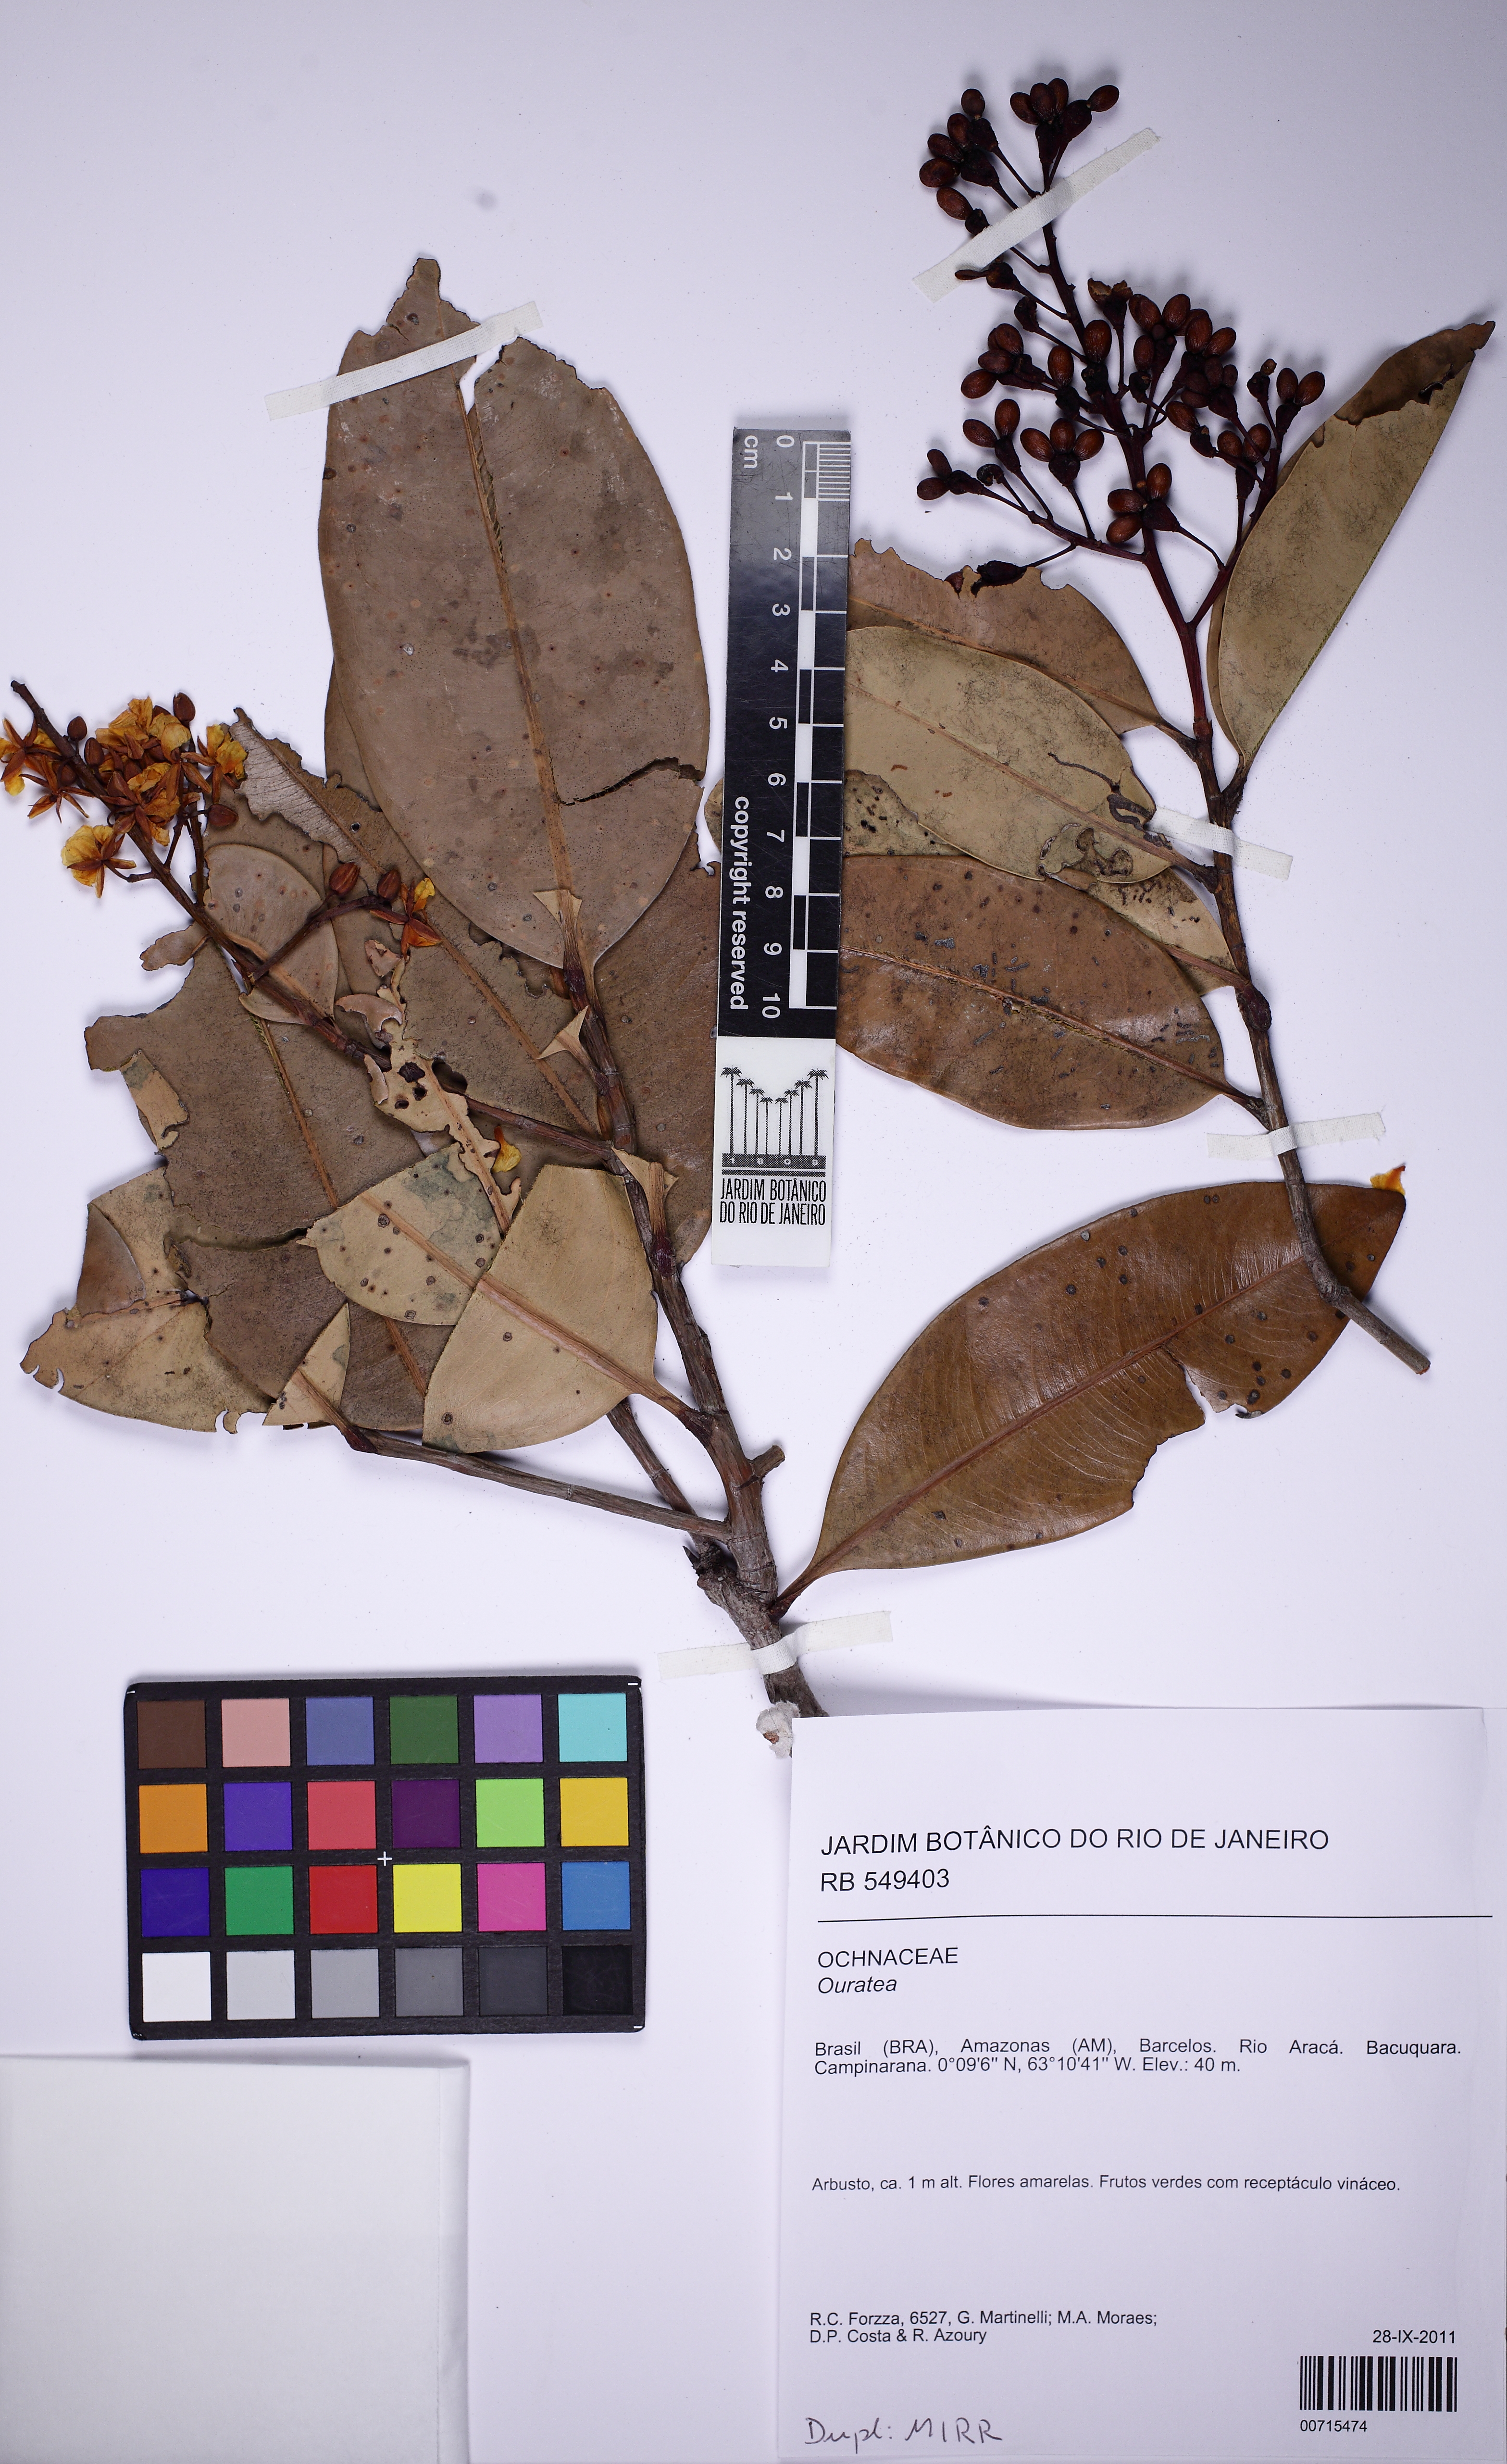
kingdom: Plantae
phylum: Tracheophyta
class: Magnoliopsida
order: Malpighiales
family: Ochnaceae
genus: Ouratea
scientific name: Ouratea
